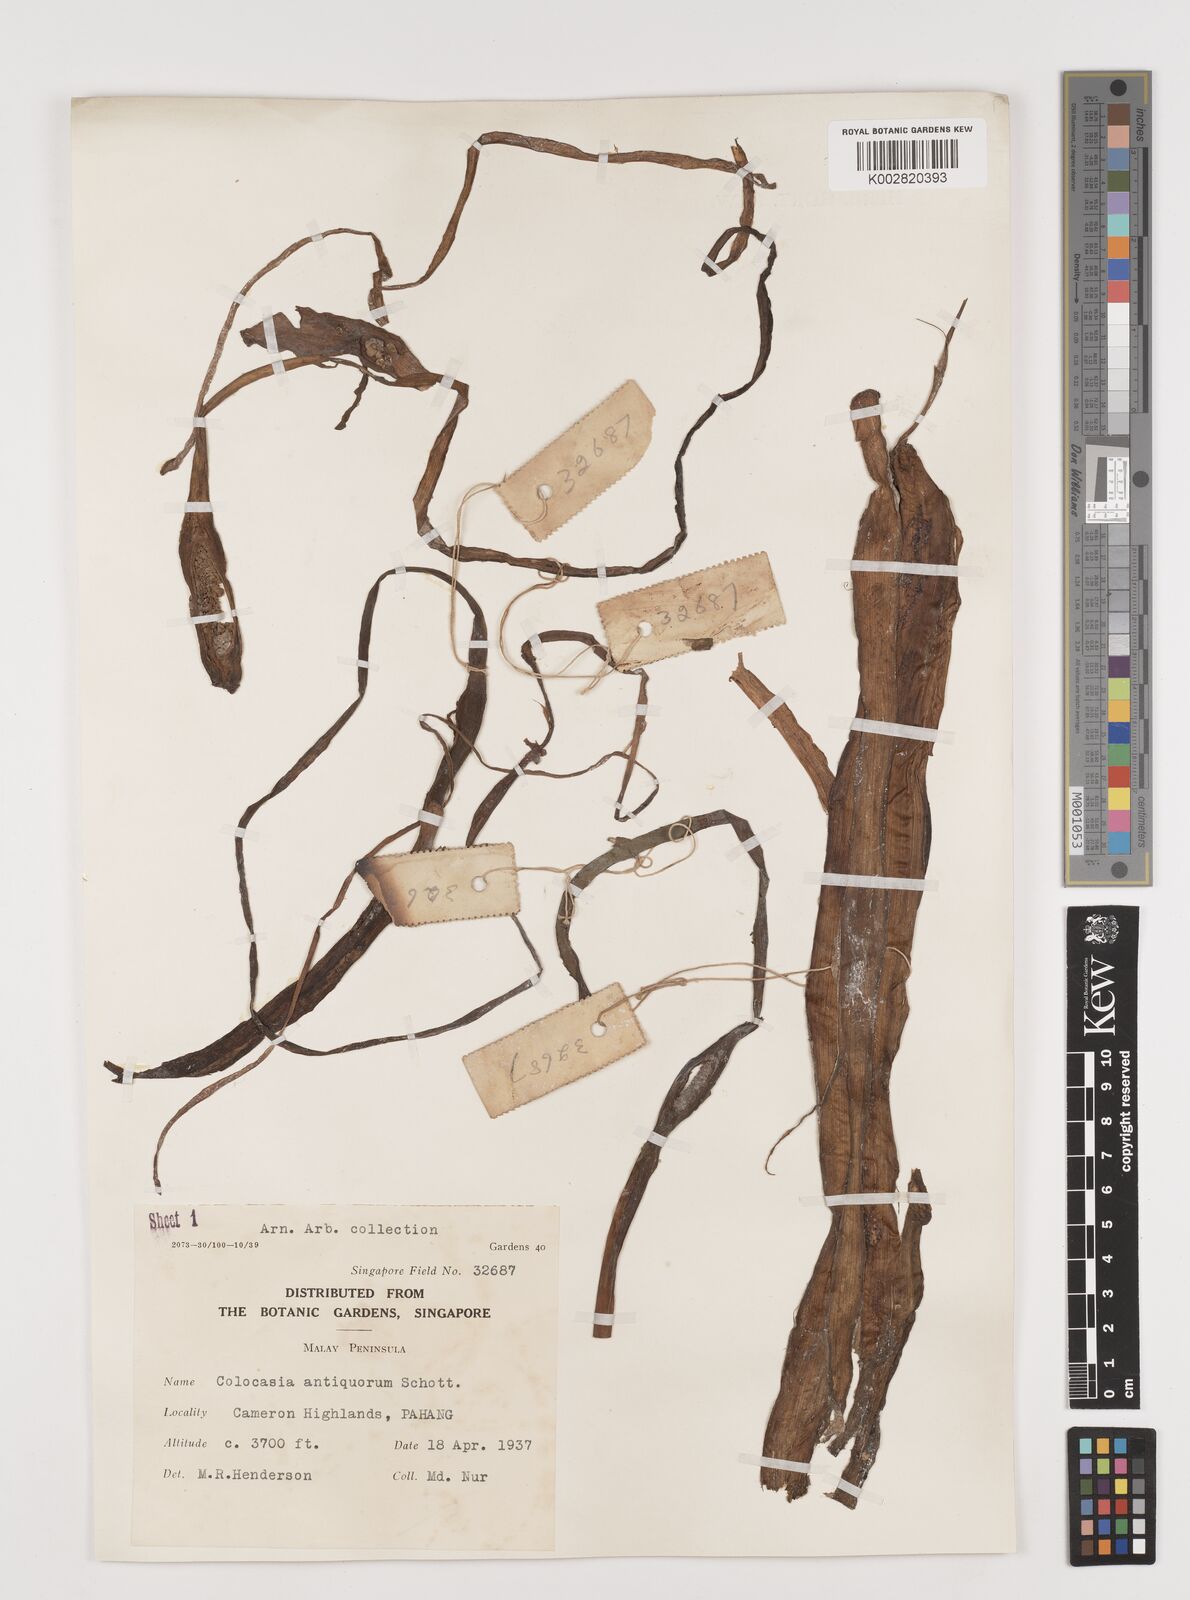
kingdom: Plantae
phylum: Tracheophyta
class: Liliopsida
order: Alismatales
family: Araceae
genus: Colocasia
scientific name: Colocasia esculenta
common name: Taro
